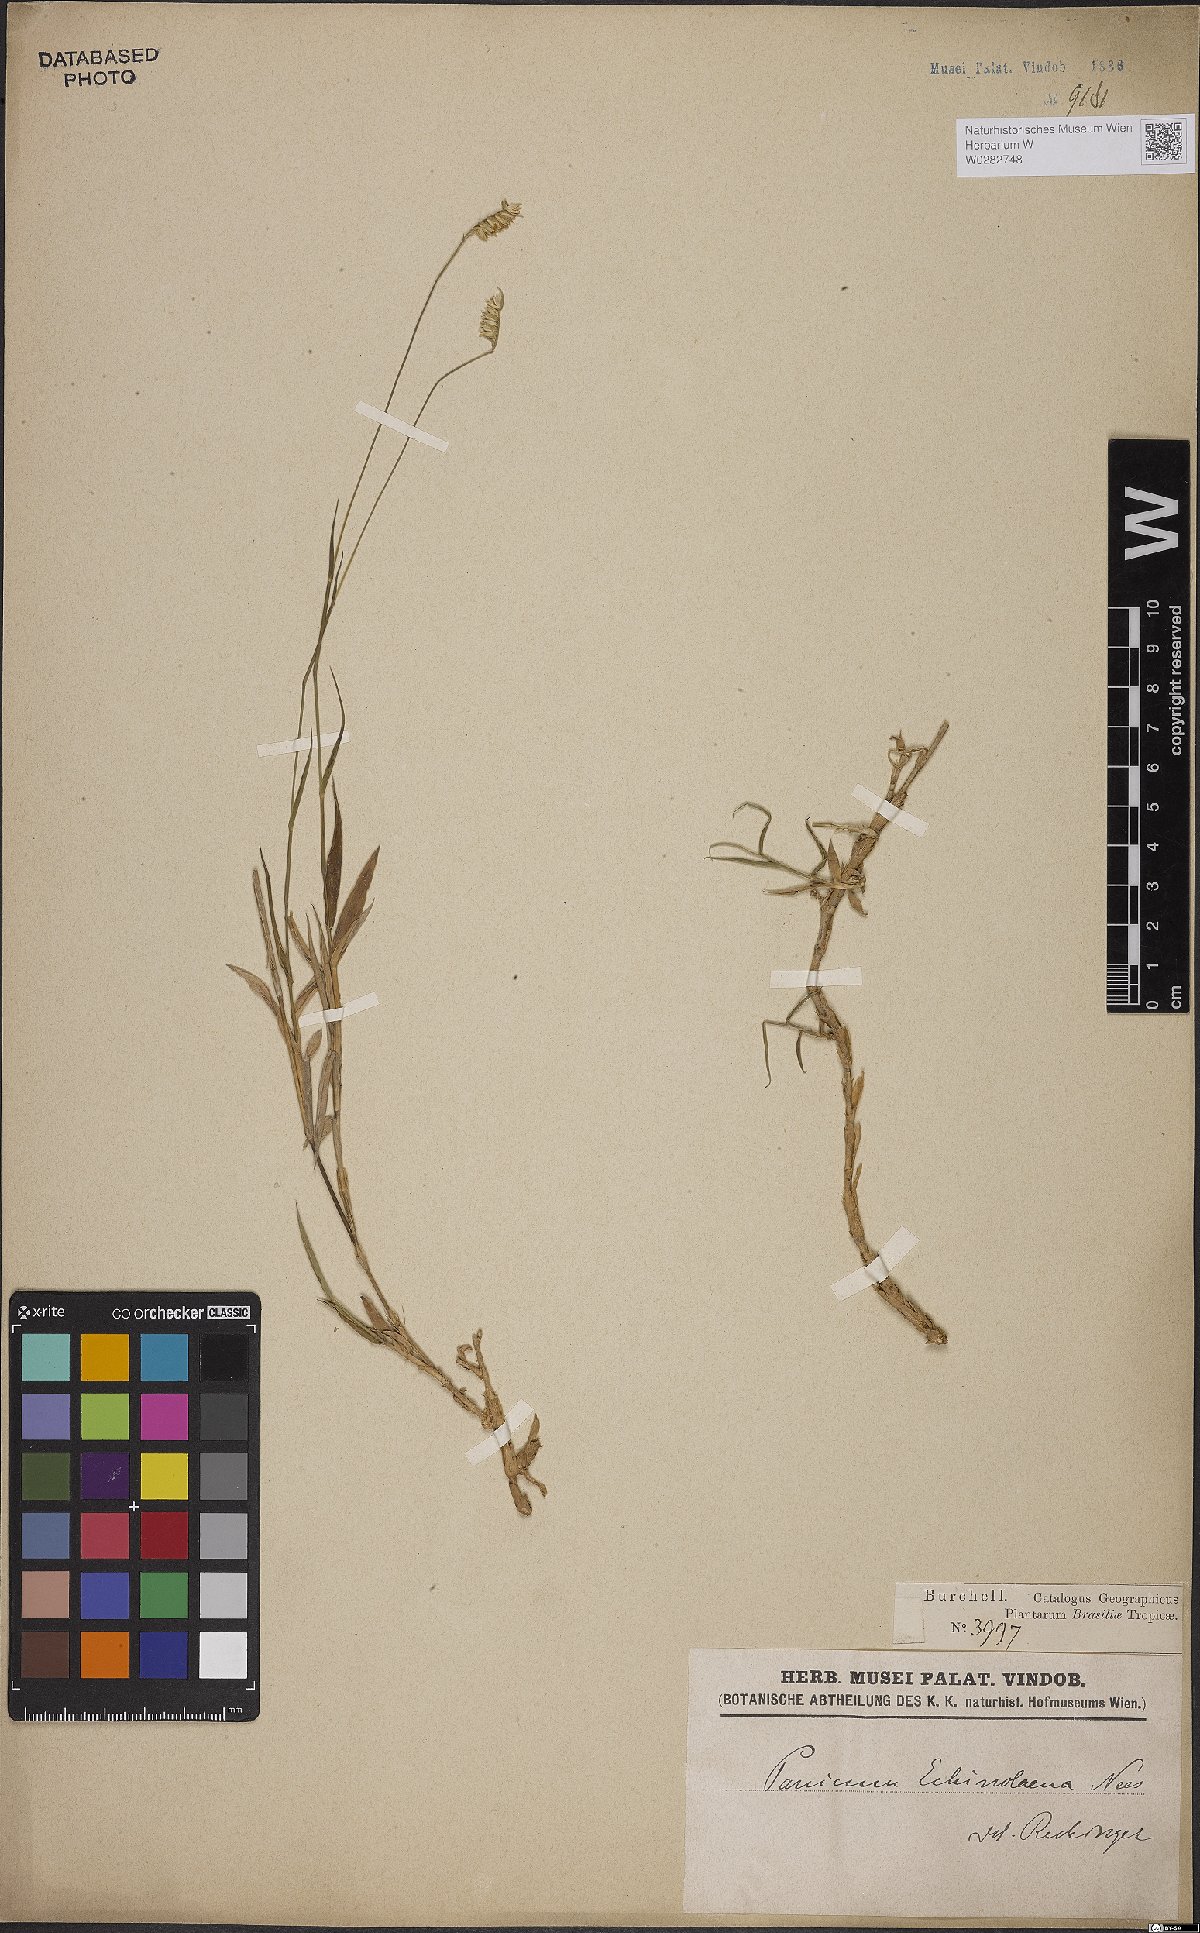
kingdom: Plantae
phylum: Tracheophyta
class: Liliopsida
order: Poales
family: Poaceae
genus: Echinolaena
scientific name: Echinolaena inflexa
